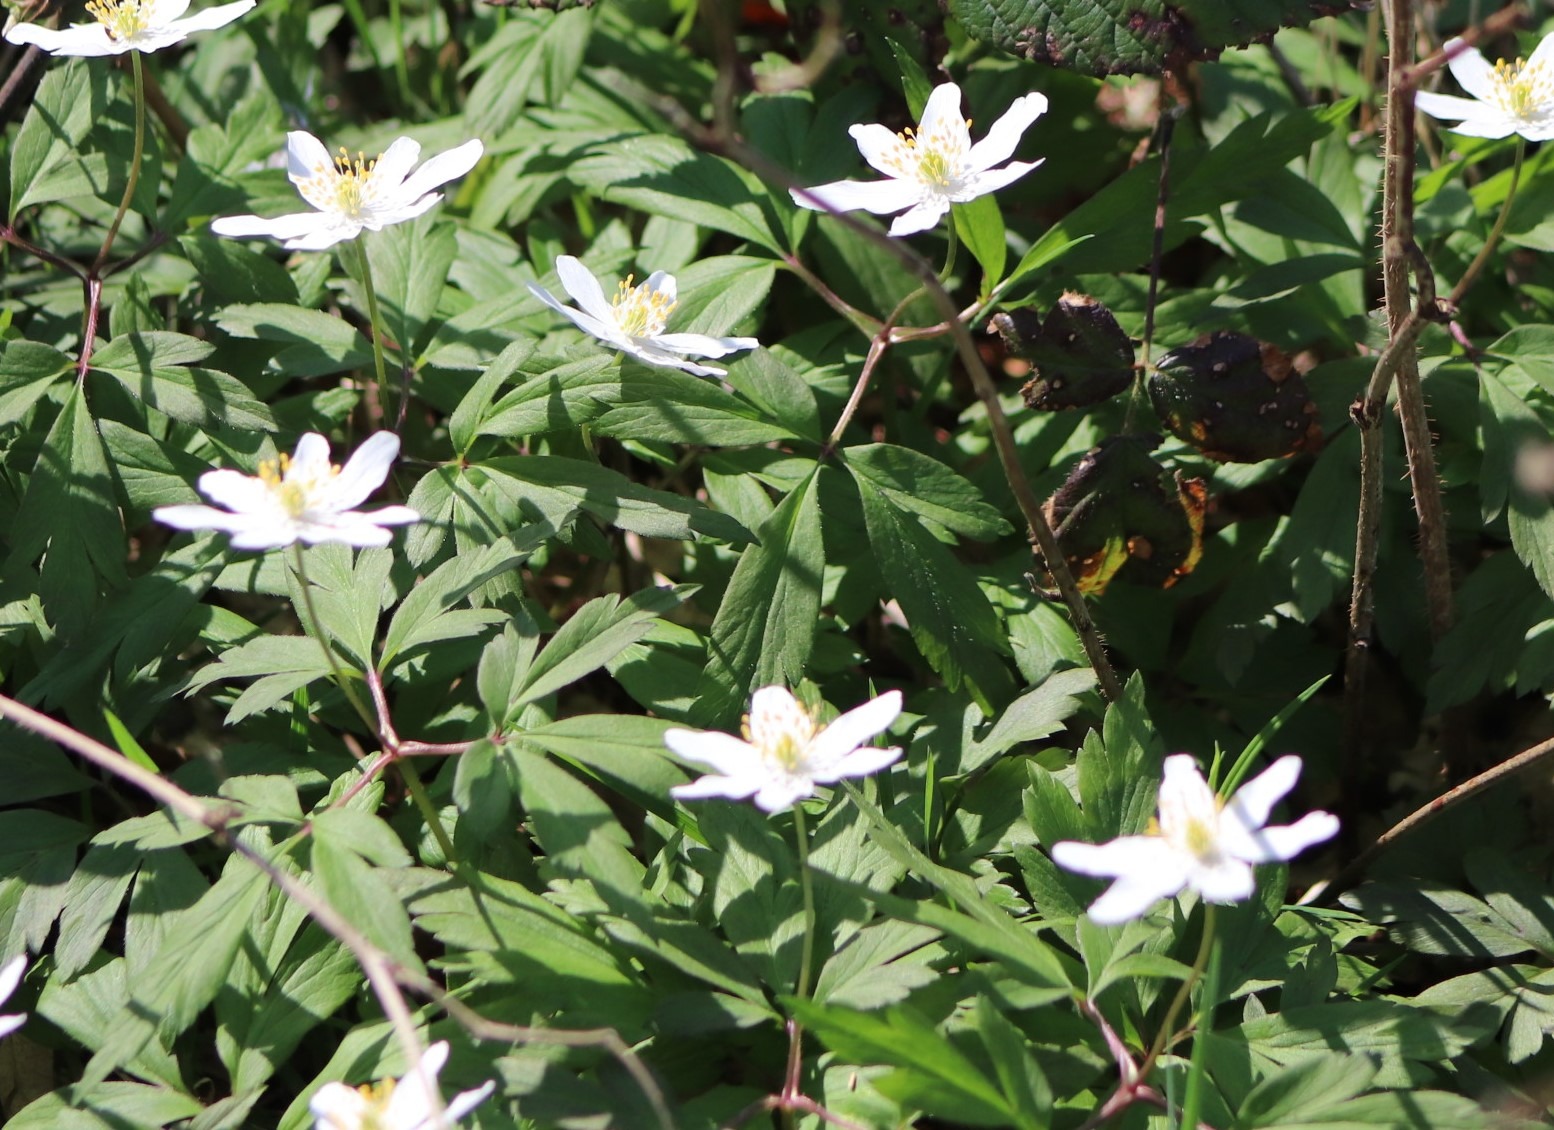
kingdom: Plantae
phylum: Tracheophyta
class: Magnoliopsida
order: Ranunculales
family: Ranunculaceae
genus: Anemone
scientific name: Anemone nemorosa
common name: Hvid anemone
